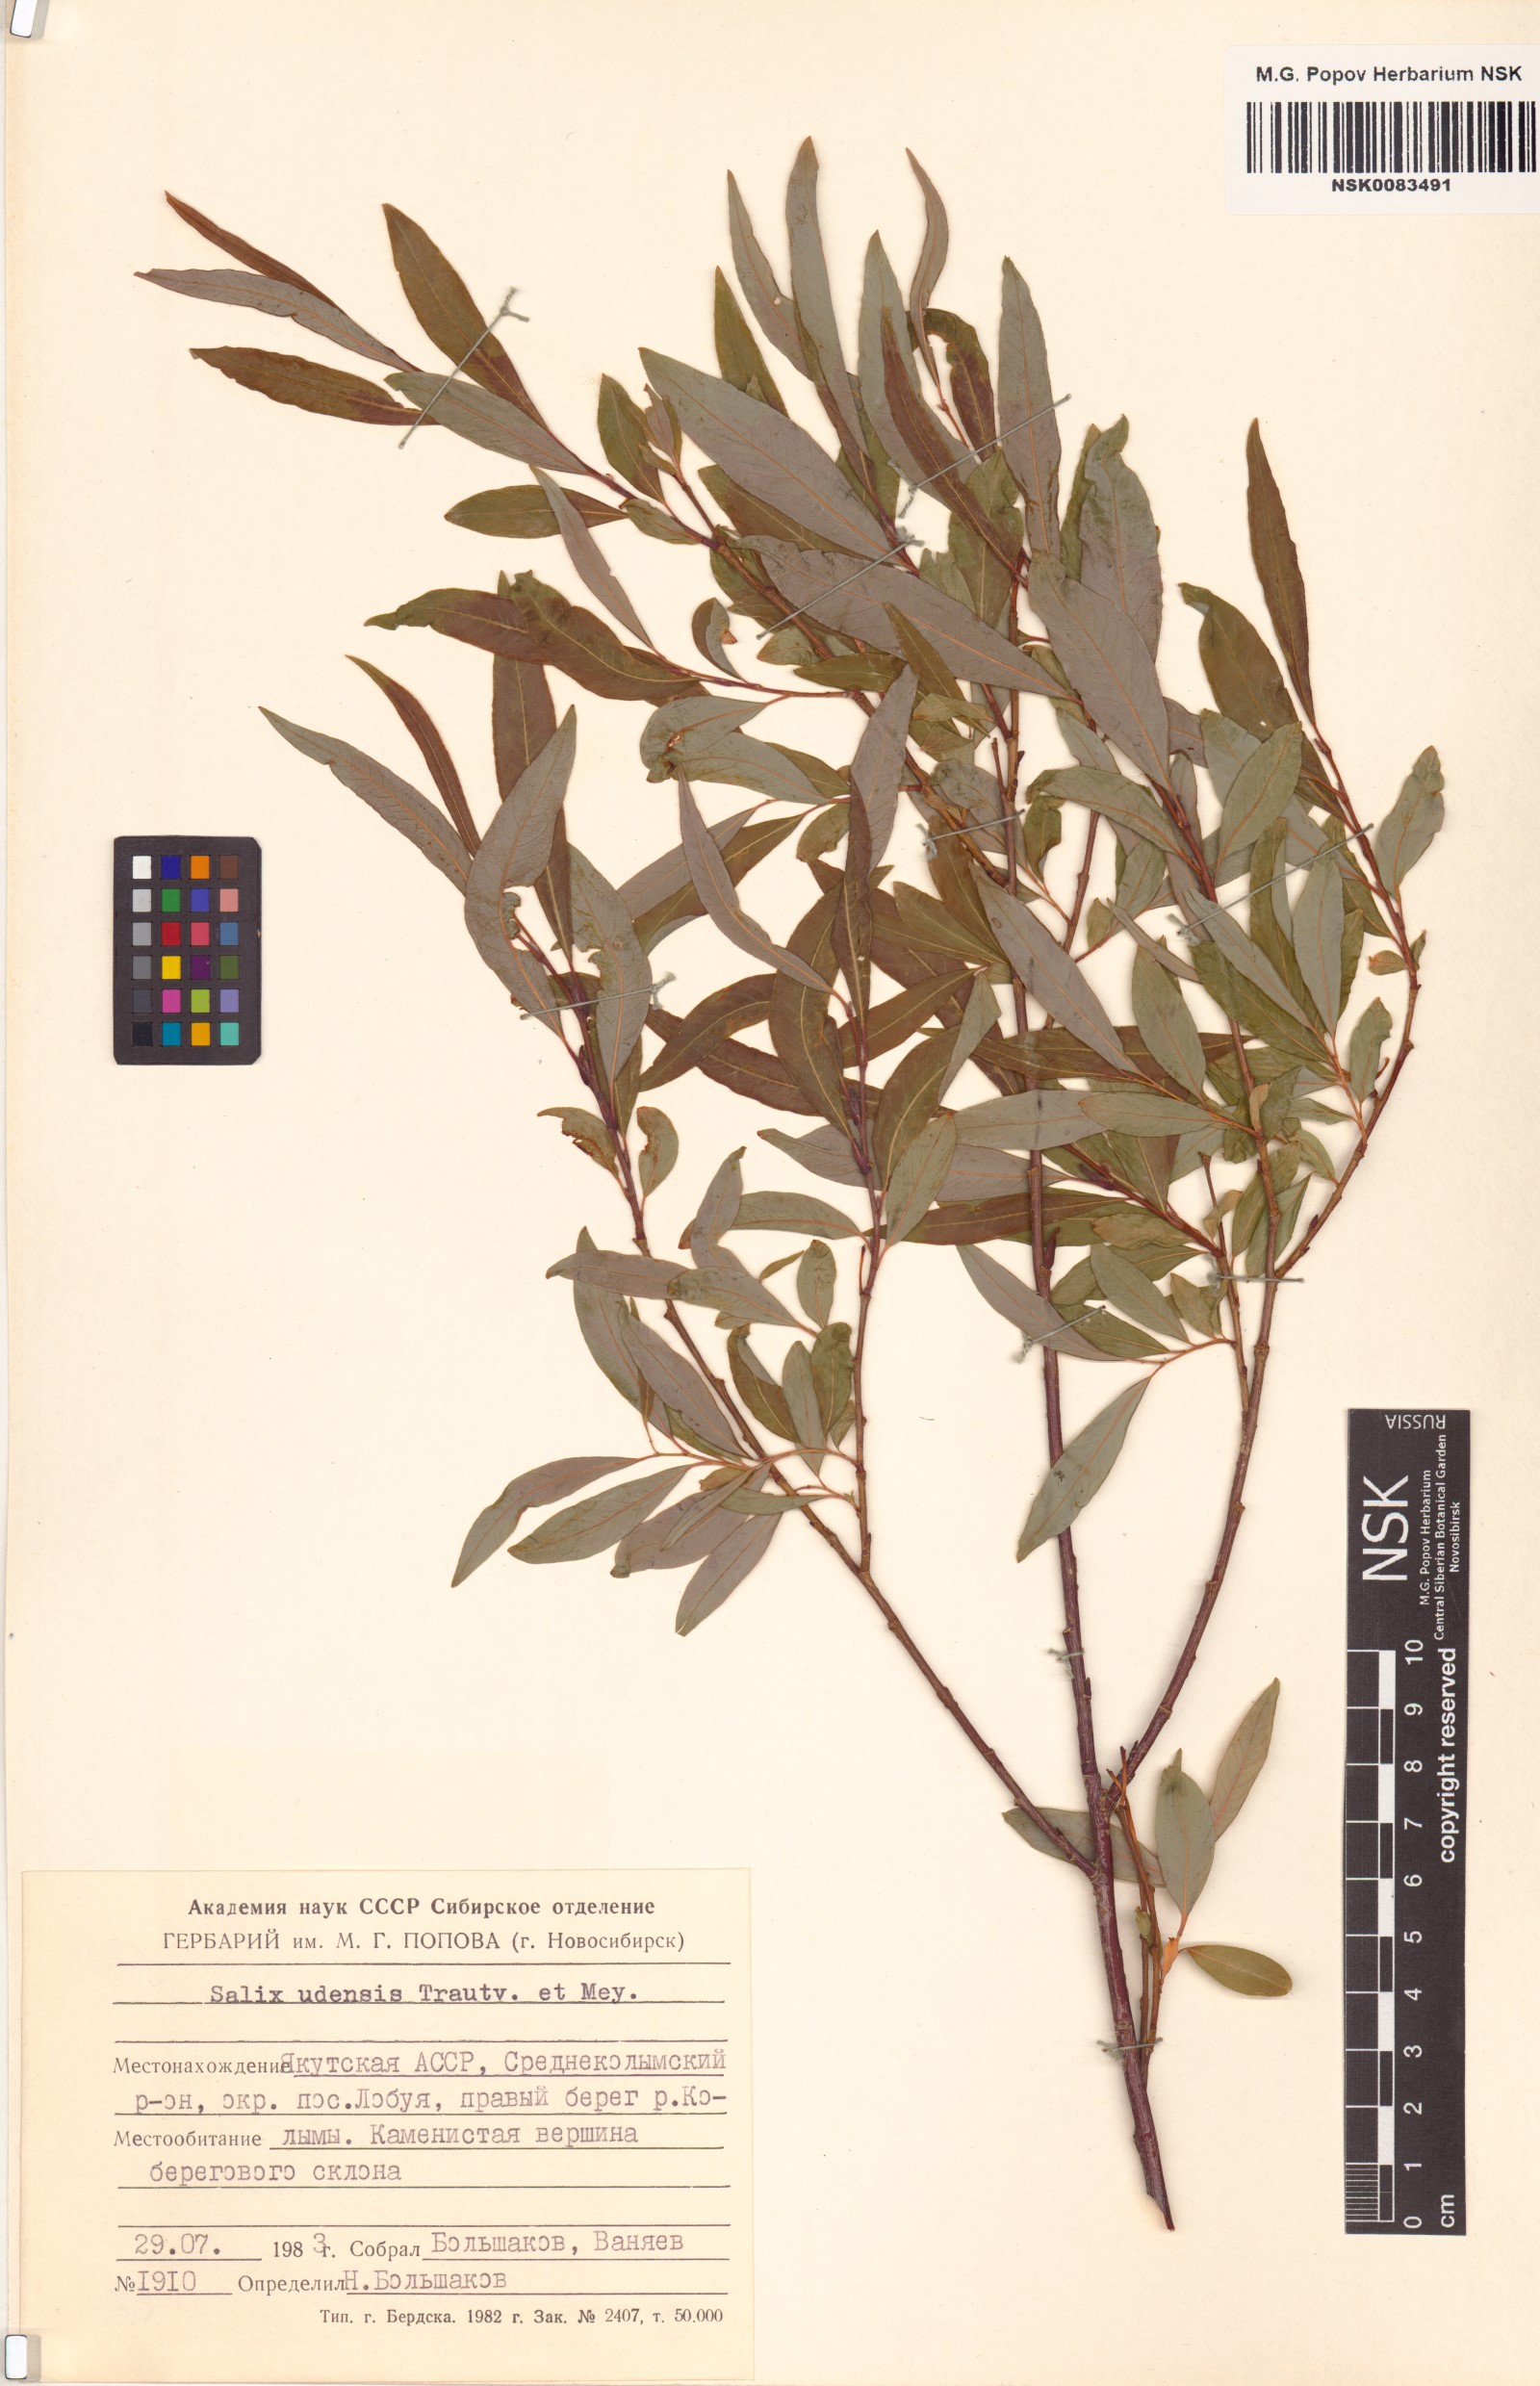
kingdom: Plantae
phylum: Tracheophyta
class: Magnoliopsida
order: Malpighiales
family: Salicaceae
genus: Salix
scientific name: Salix udensis
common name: Sachalin willow
